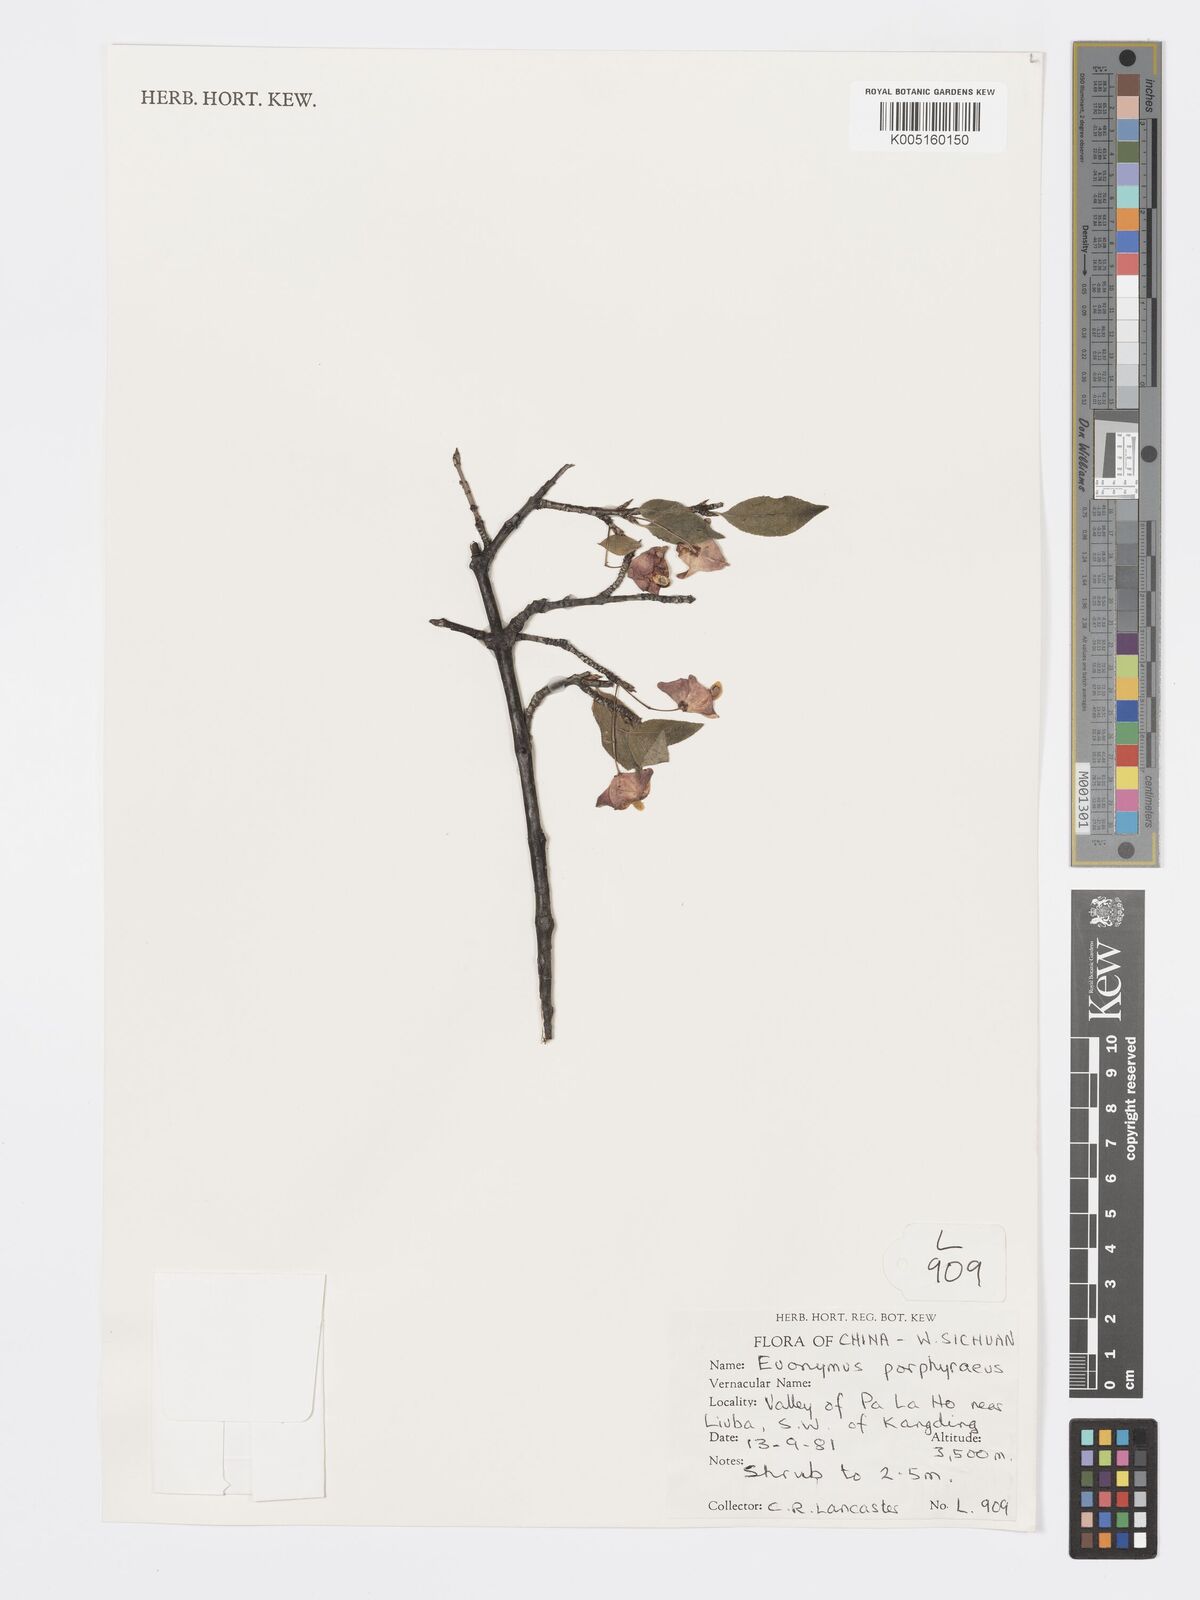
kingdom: Plantae
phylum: Tracheophyta
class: Magnoliopsida
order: Celastrales
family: Celastraceae
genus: Euonymus
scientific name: Euonymus frigidus
